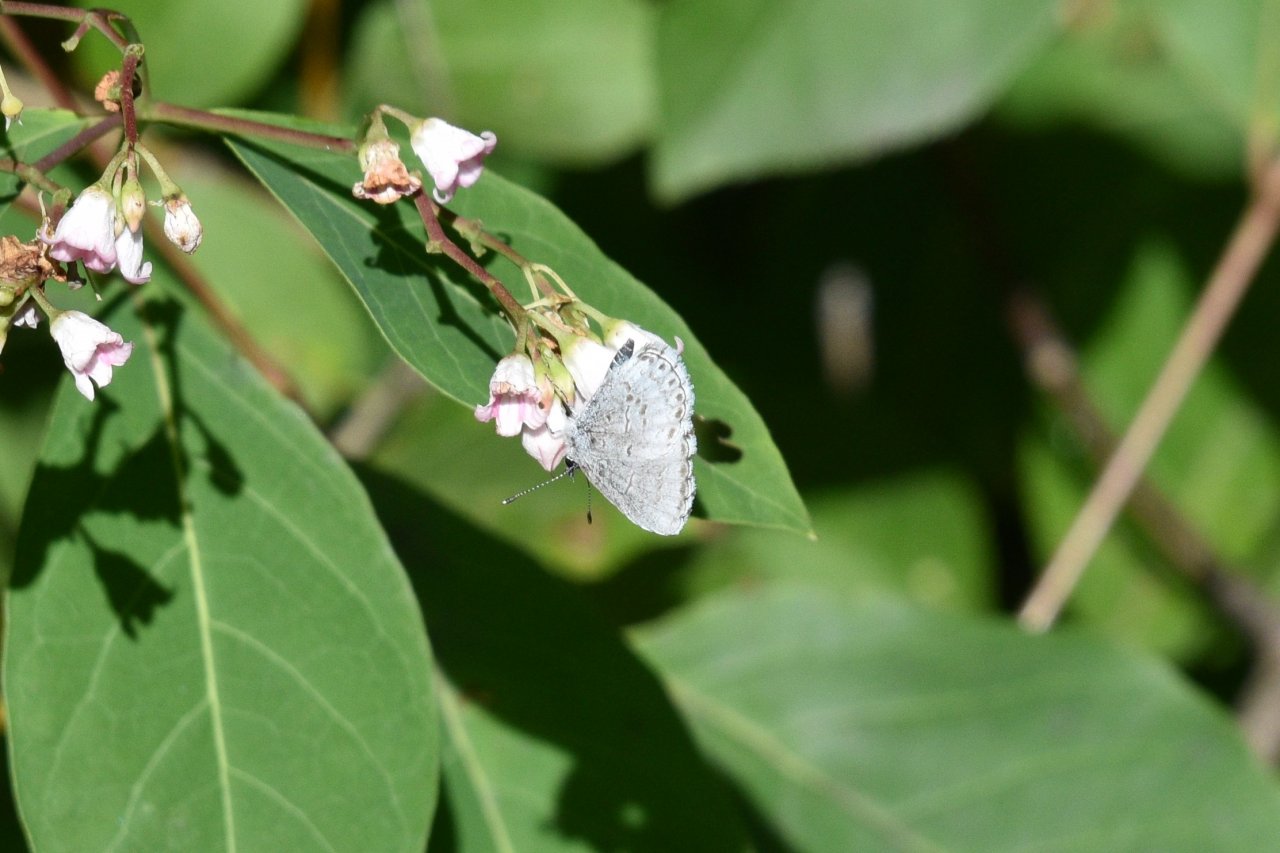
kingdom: Animalia
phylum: Arthropoda
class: Insecta
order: Lepidoptera
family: Lycaenidae
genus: Celastrina
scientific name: Celastrina lucia
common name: Northern Spring Azure
